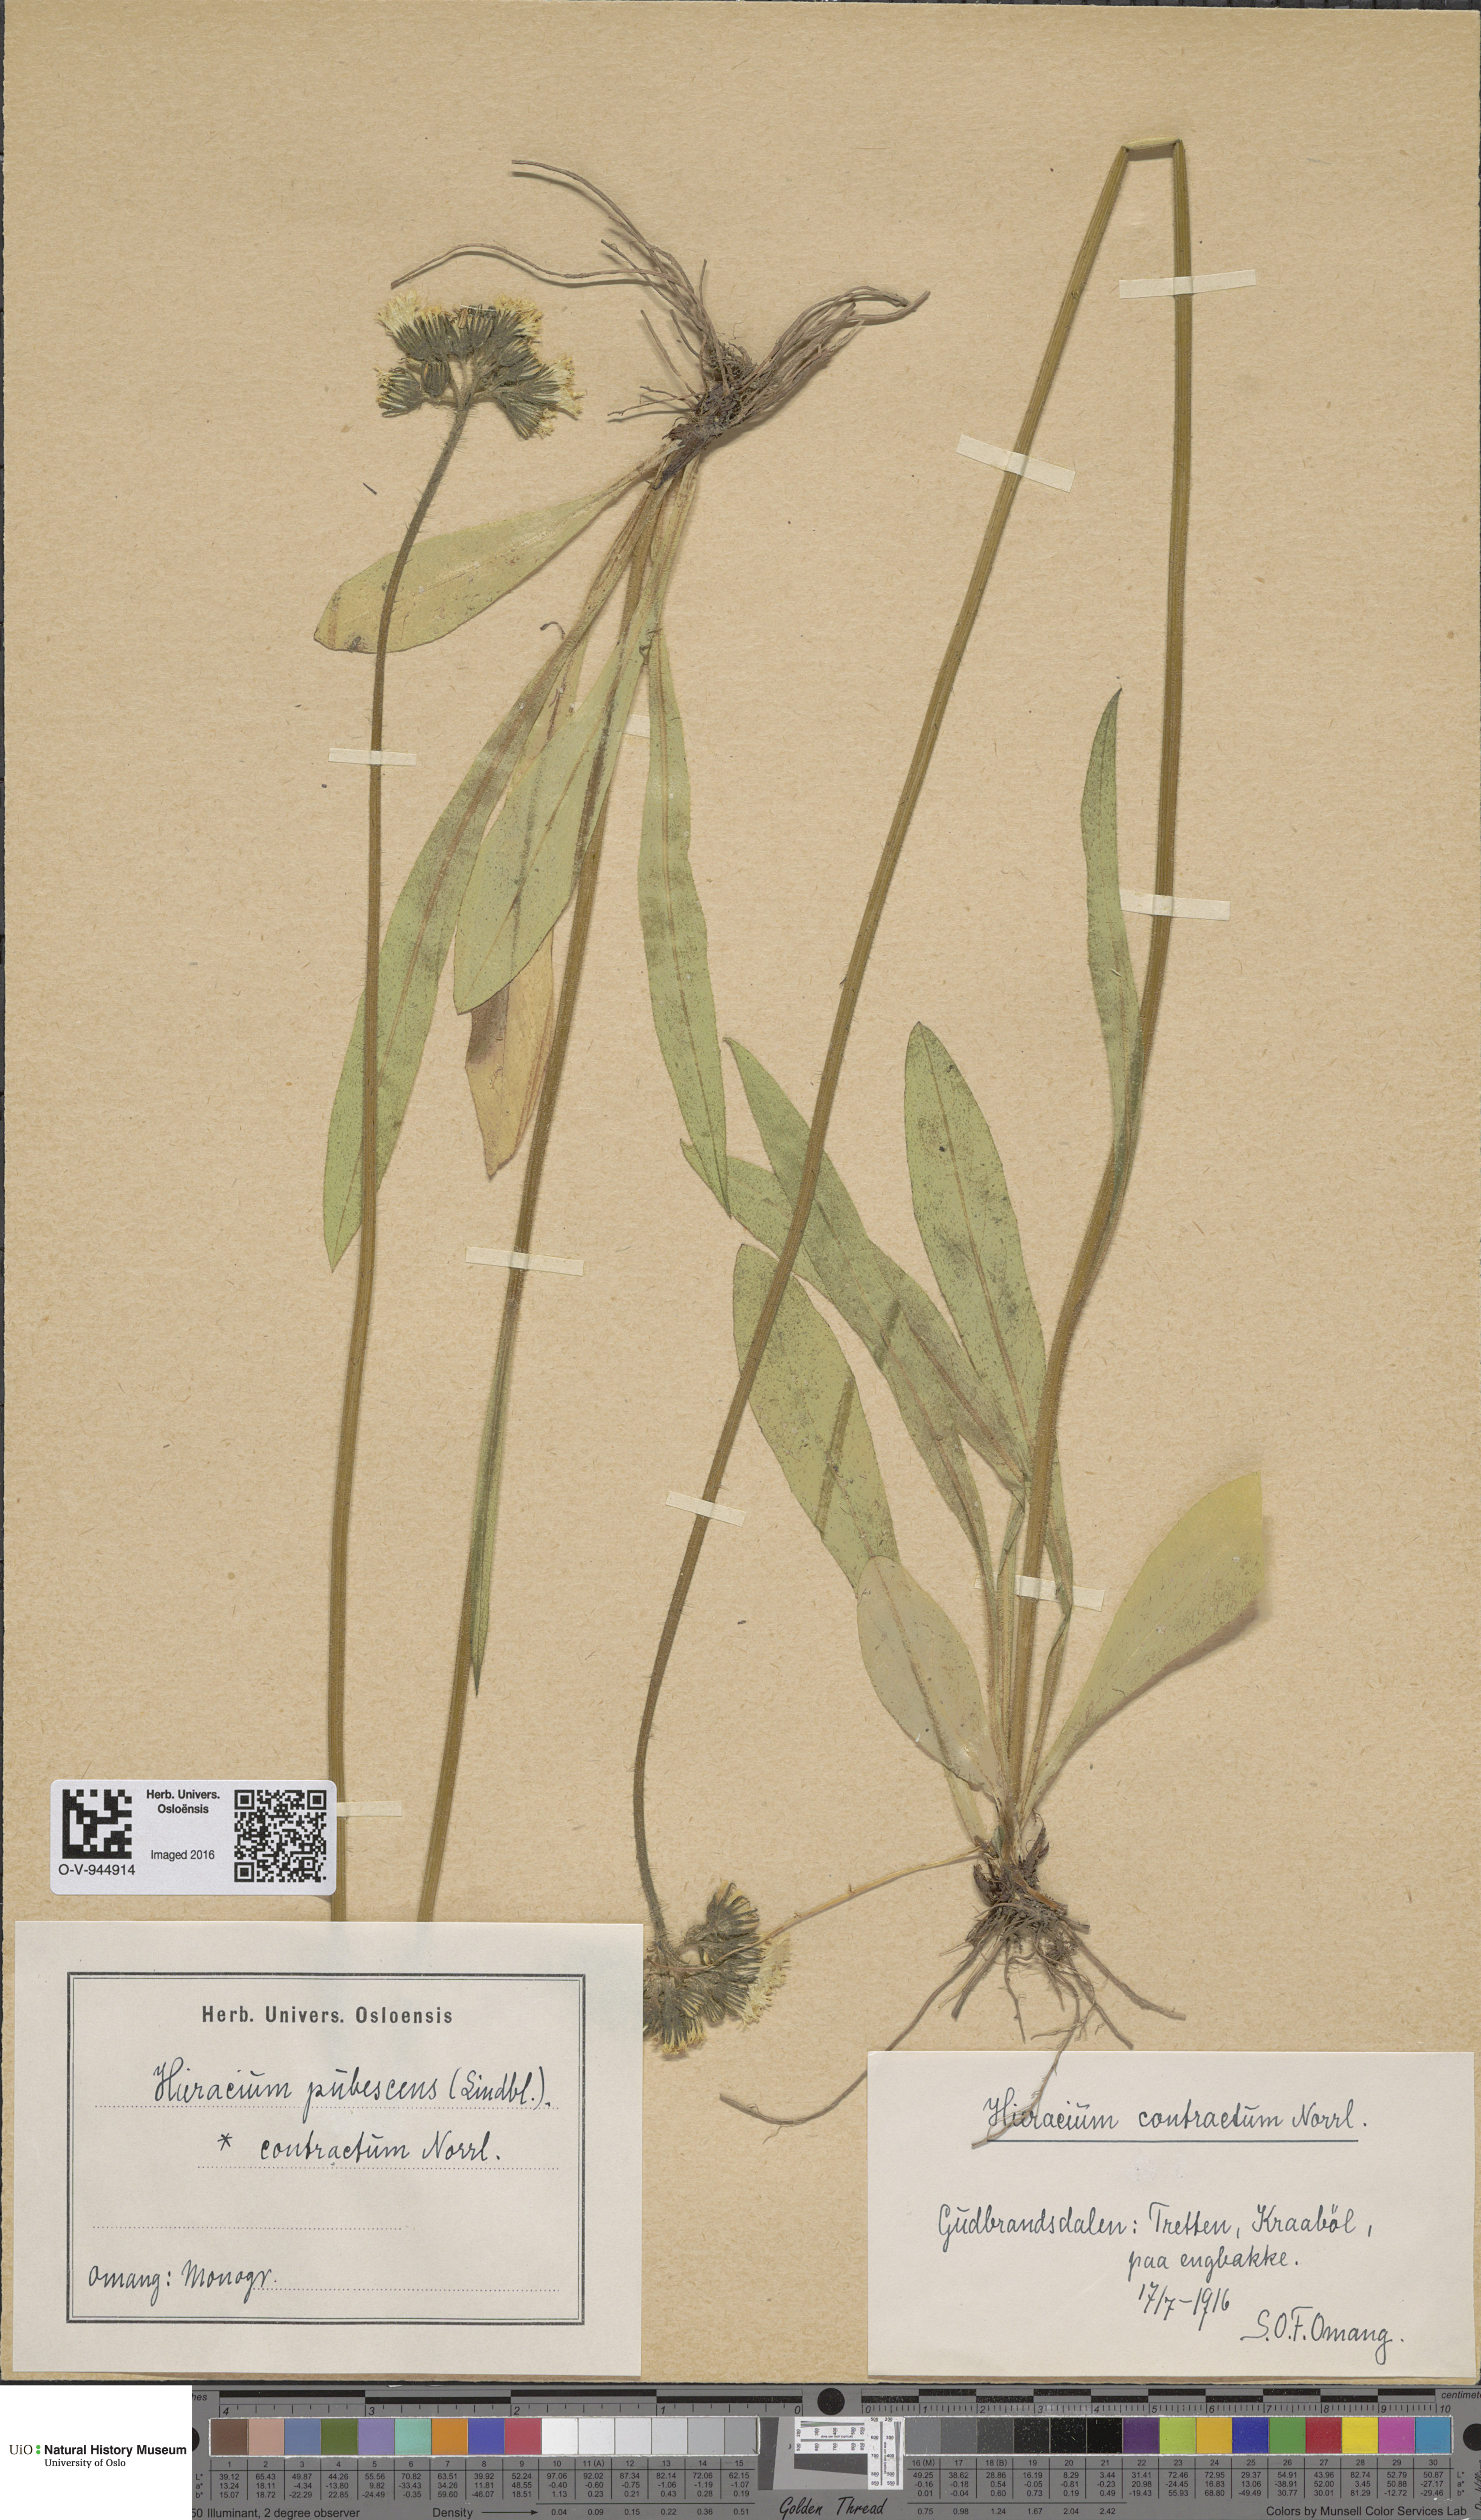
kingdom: Plantae
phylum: Tracheophyta
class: Magnoliopsida
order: Asterales
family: Asteraceae
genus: Pilosella
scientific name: Pilosella cymosa
